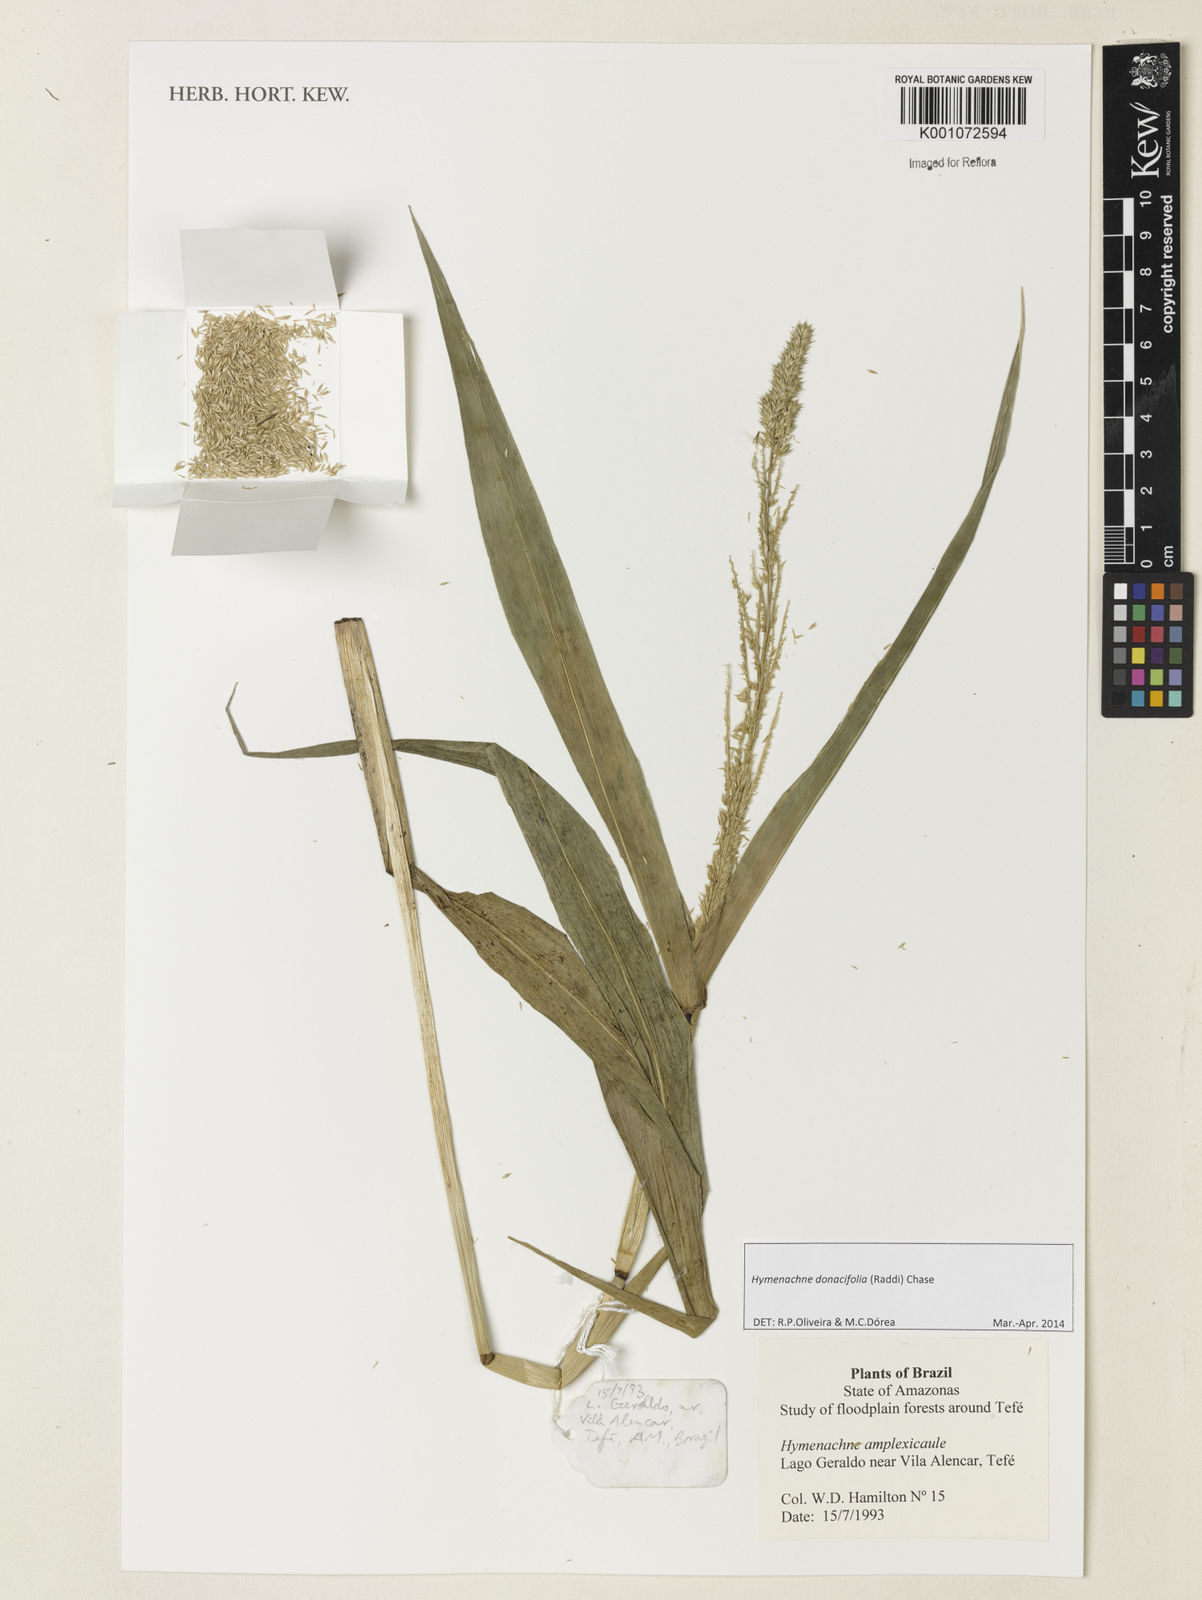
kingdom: Plantae
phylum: Tracheophyta
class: Liliopsida
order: Poales
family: Poaceae
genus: Hymenachne
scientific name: Hymenachne donacifolia
